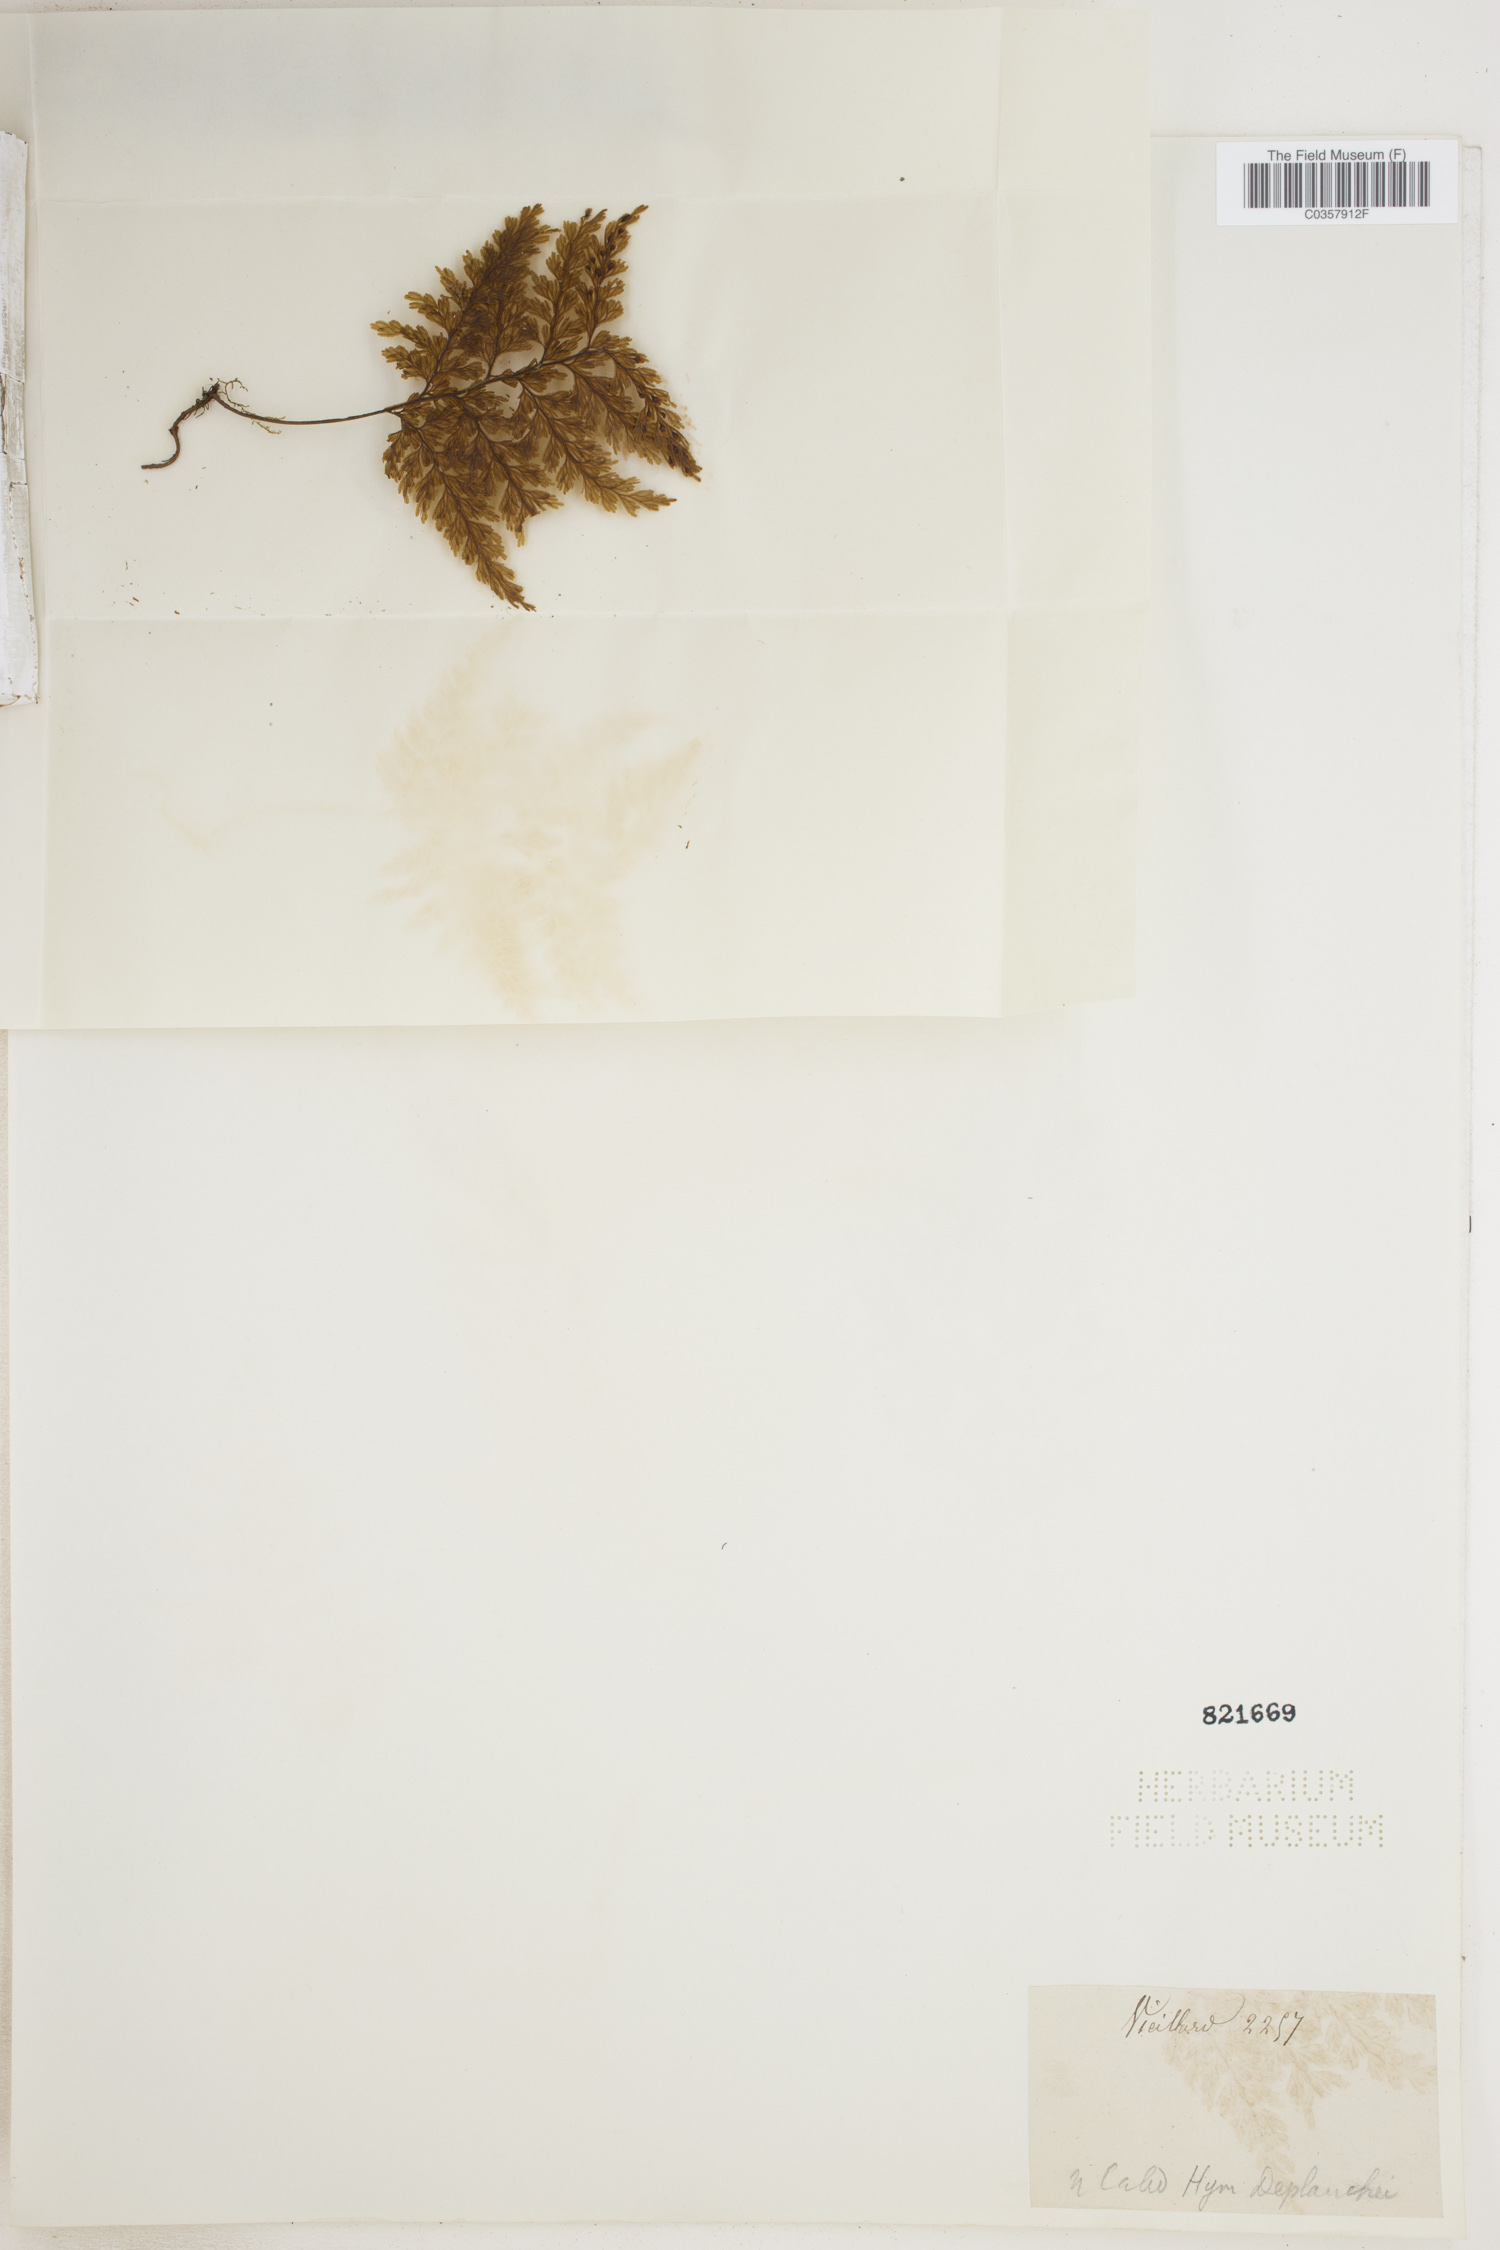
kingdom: Plantae
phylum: Tracheophyta
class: Polypodiopsida
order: Hymenophyllales
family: Hymenophyllaceae
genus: Hymenophyllum
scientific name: Hymenophyllum deplanchei
